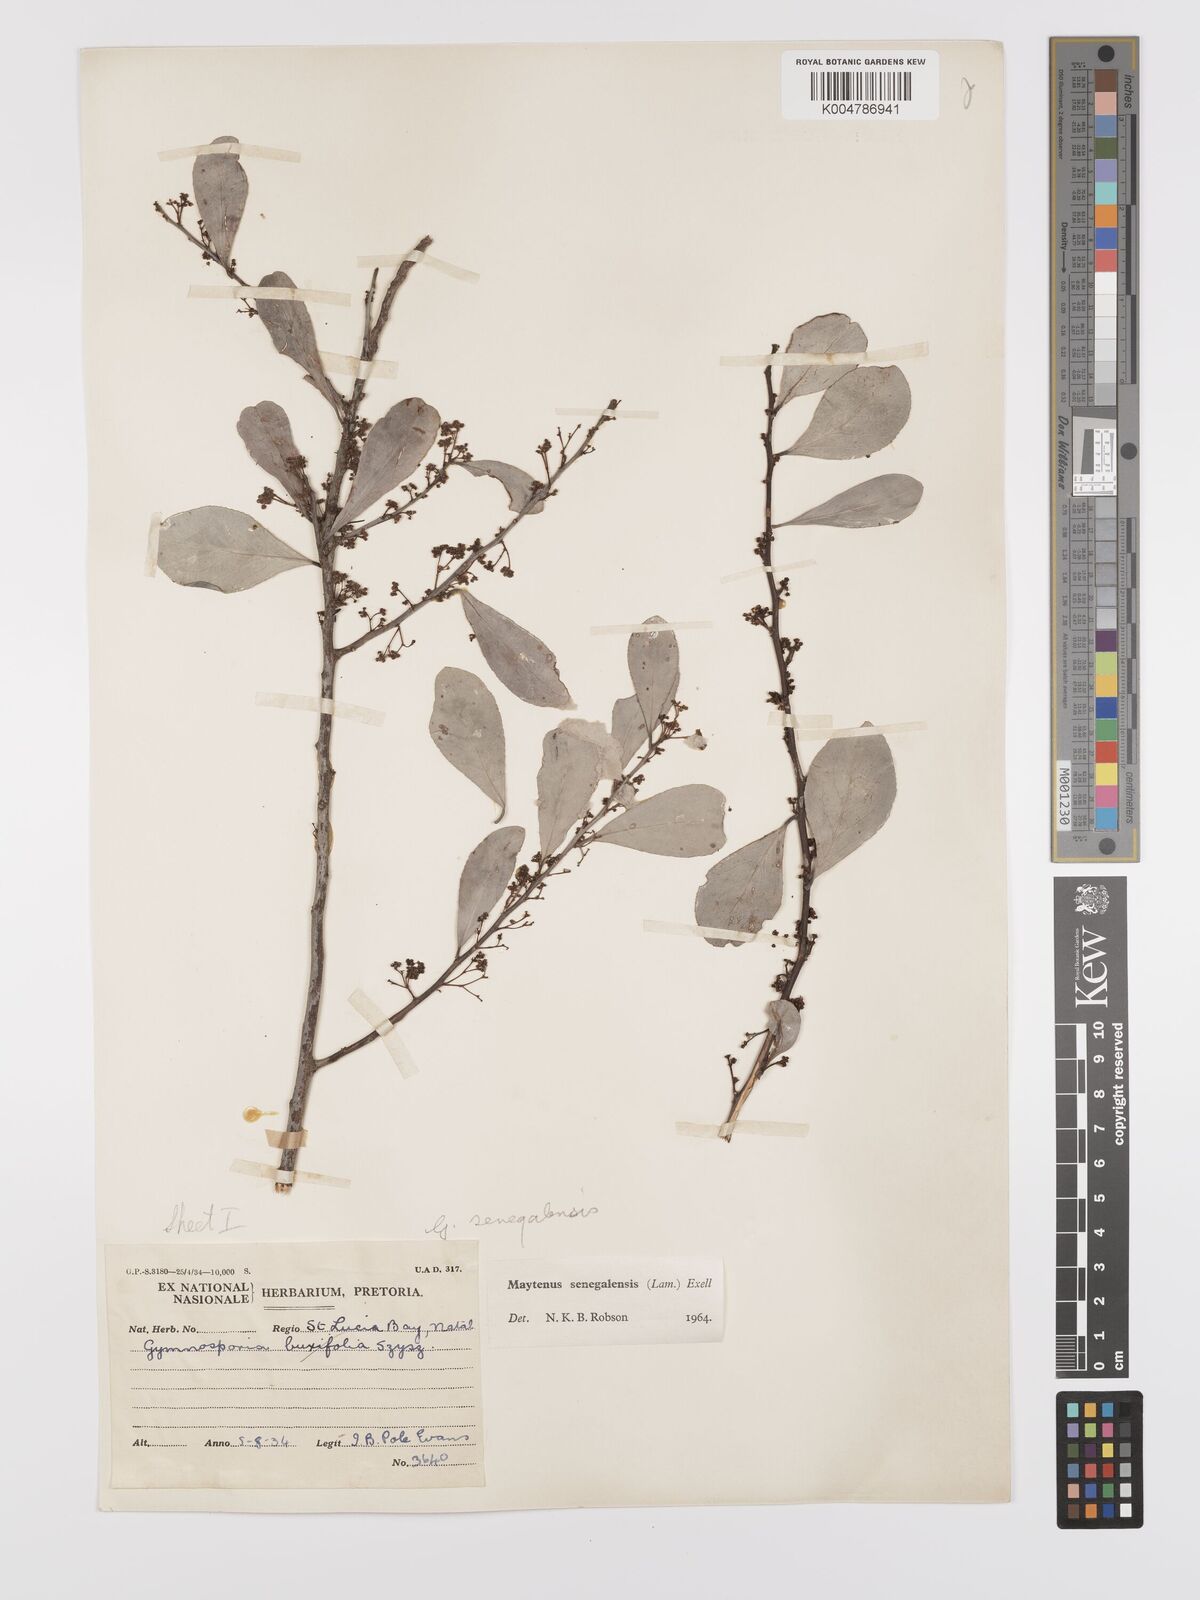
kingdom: Plantae
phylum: Tracheophyta
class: Magnoliopsida
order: Celastrales
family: Celastraceae
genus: Gymnosporia
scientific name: Gymnosporia senegalensis
